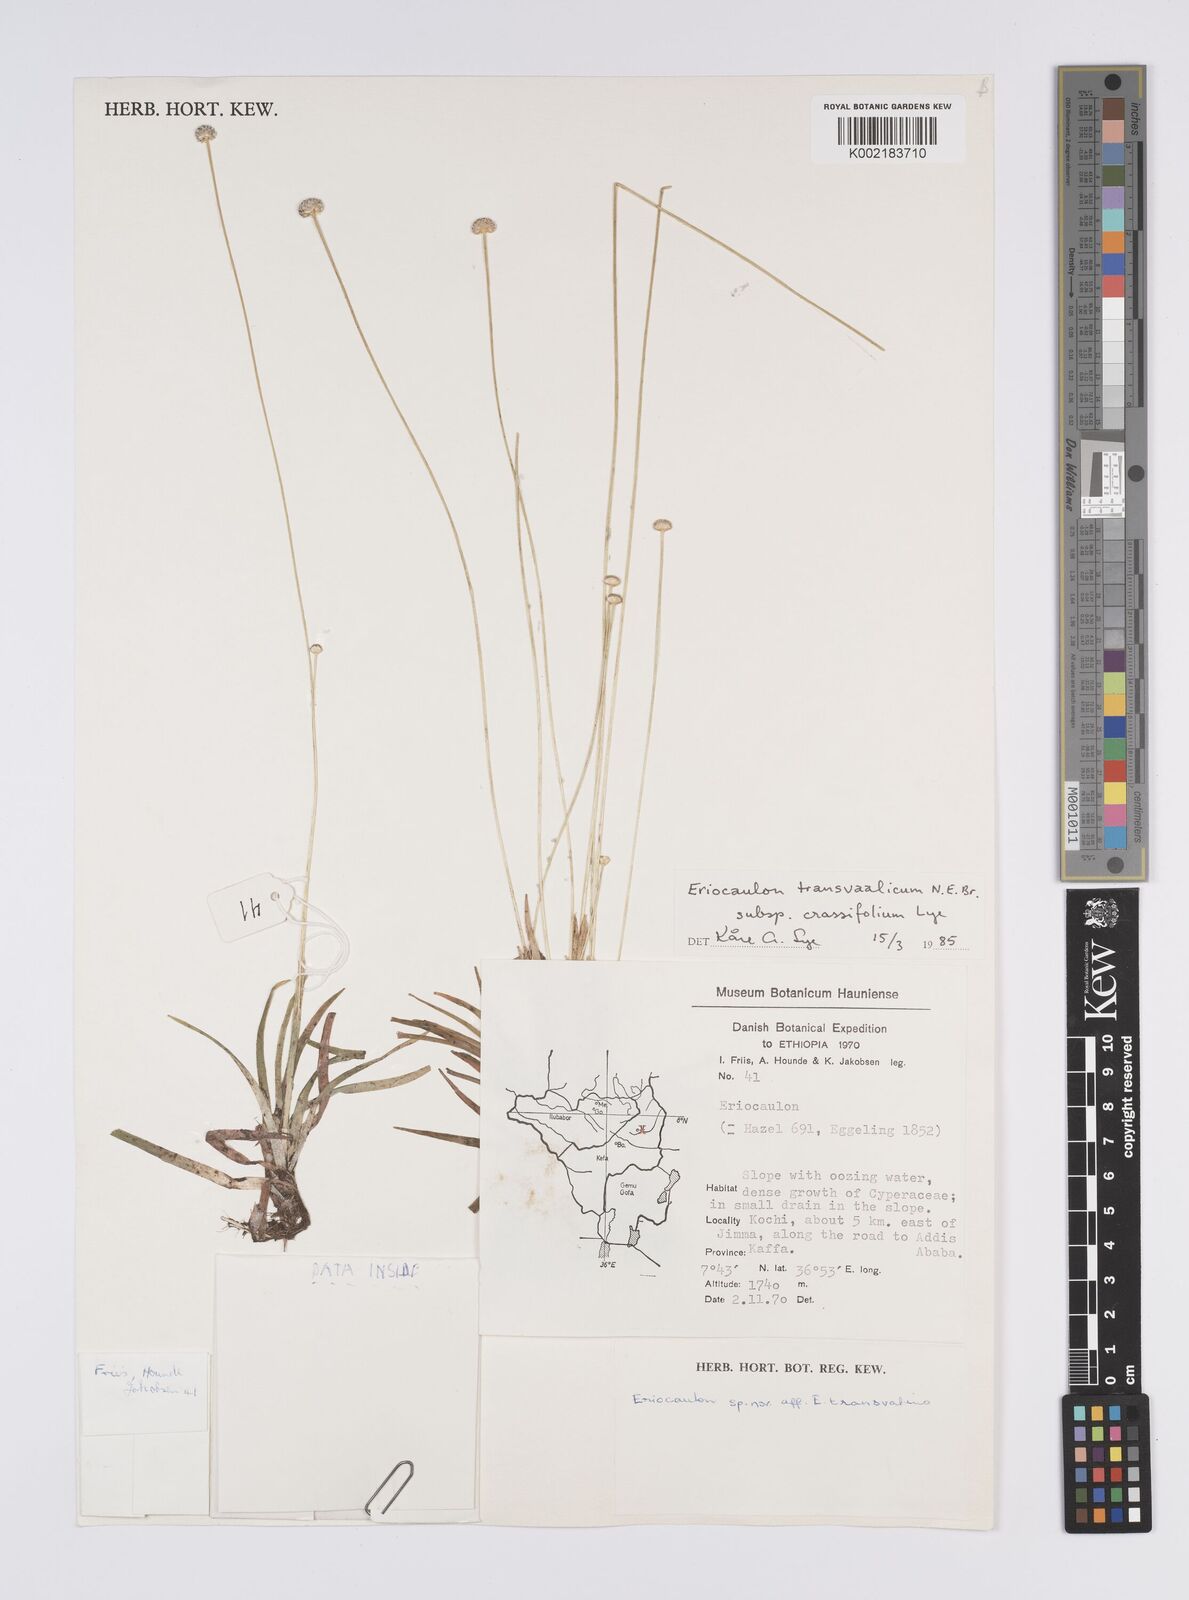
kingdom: Plantae
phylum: Tracheophyta
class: Liliopsida
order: Poales
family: Eriocaulaceae
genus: Eriocaulon
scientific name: Eriocaulon crassiusculum
